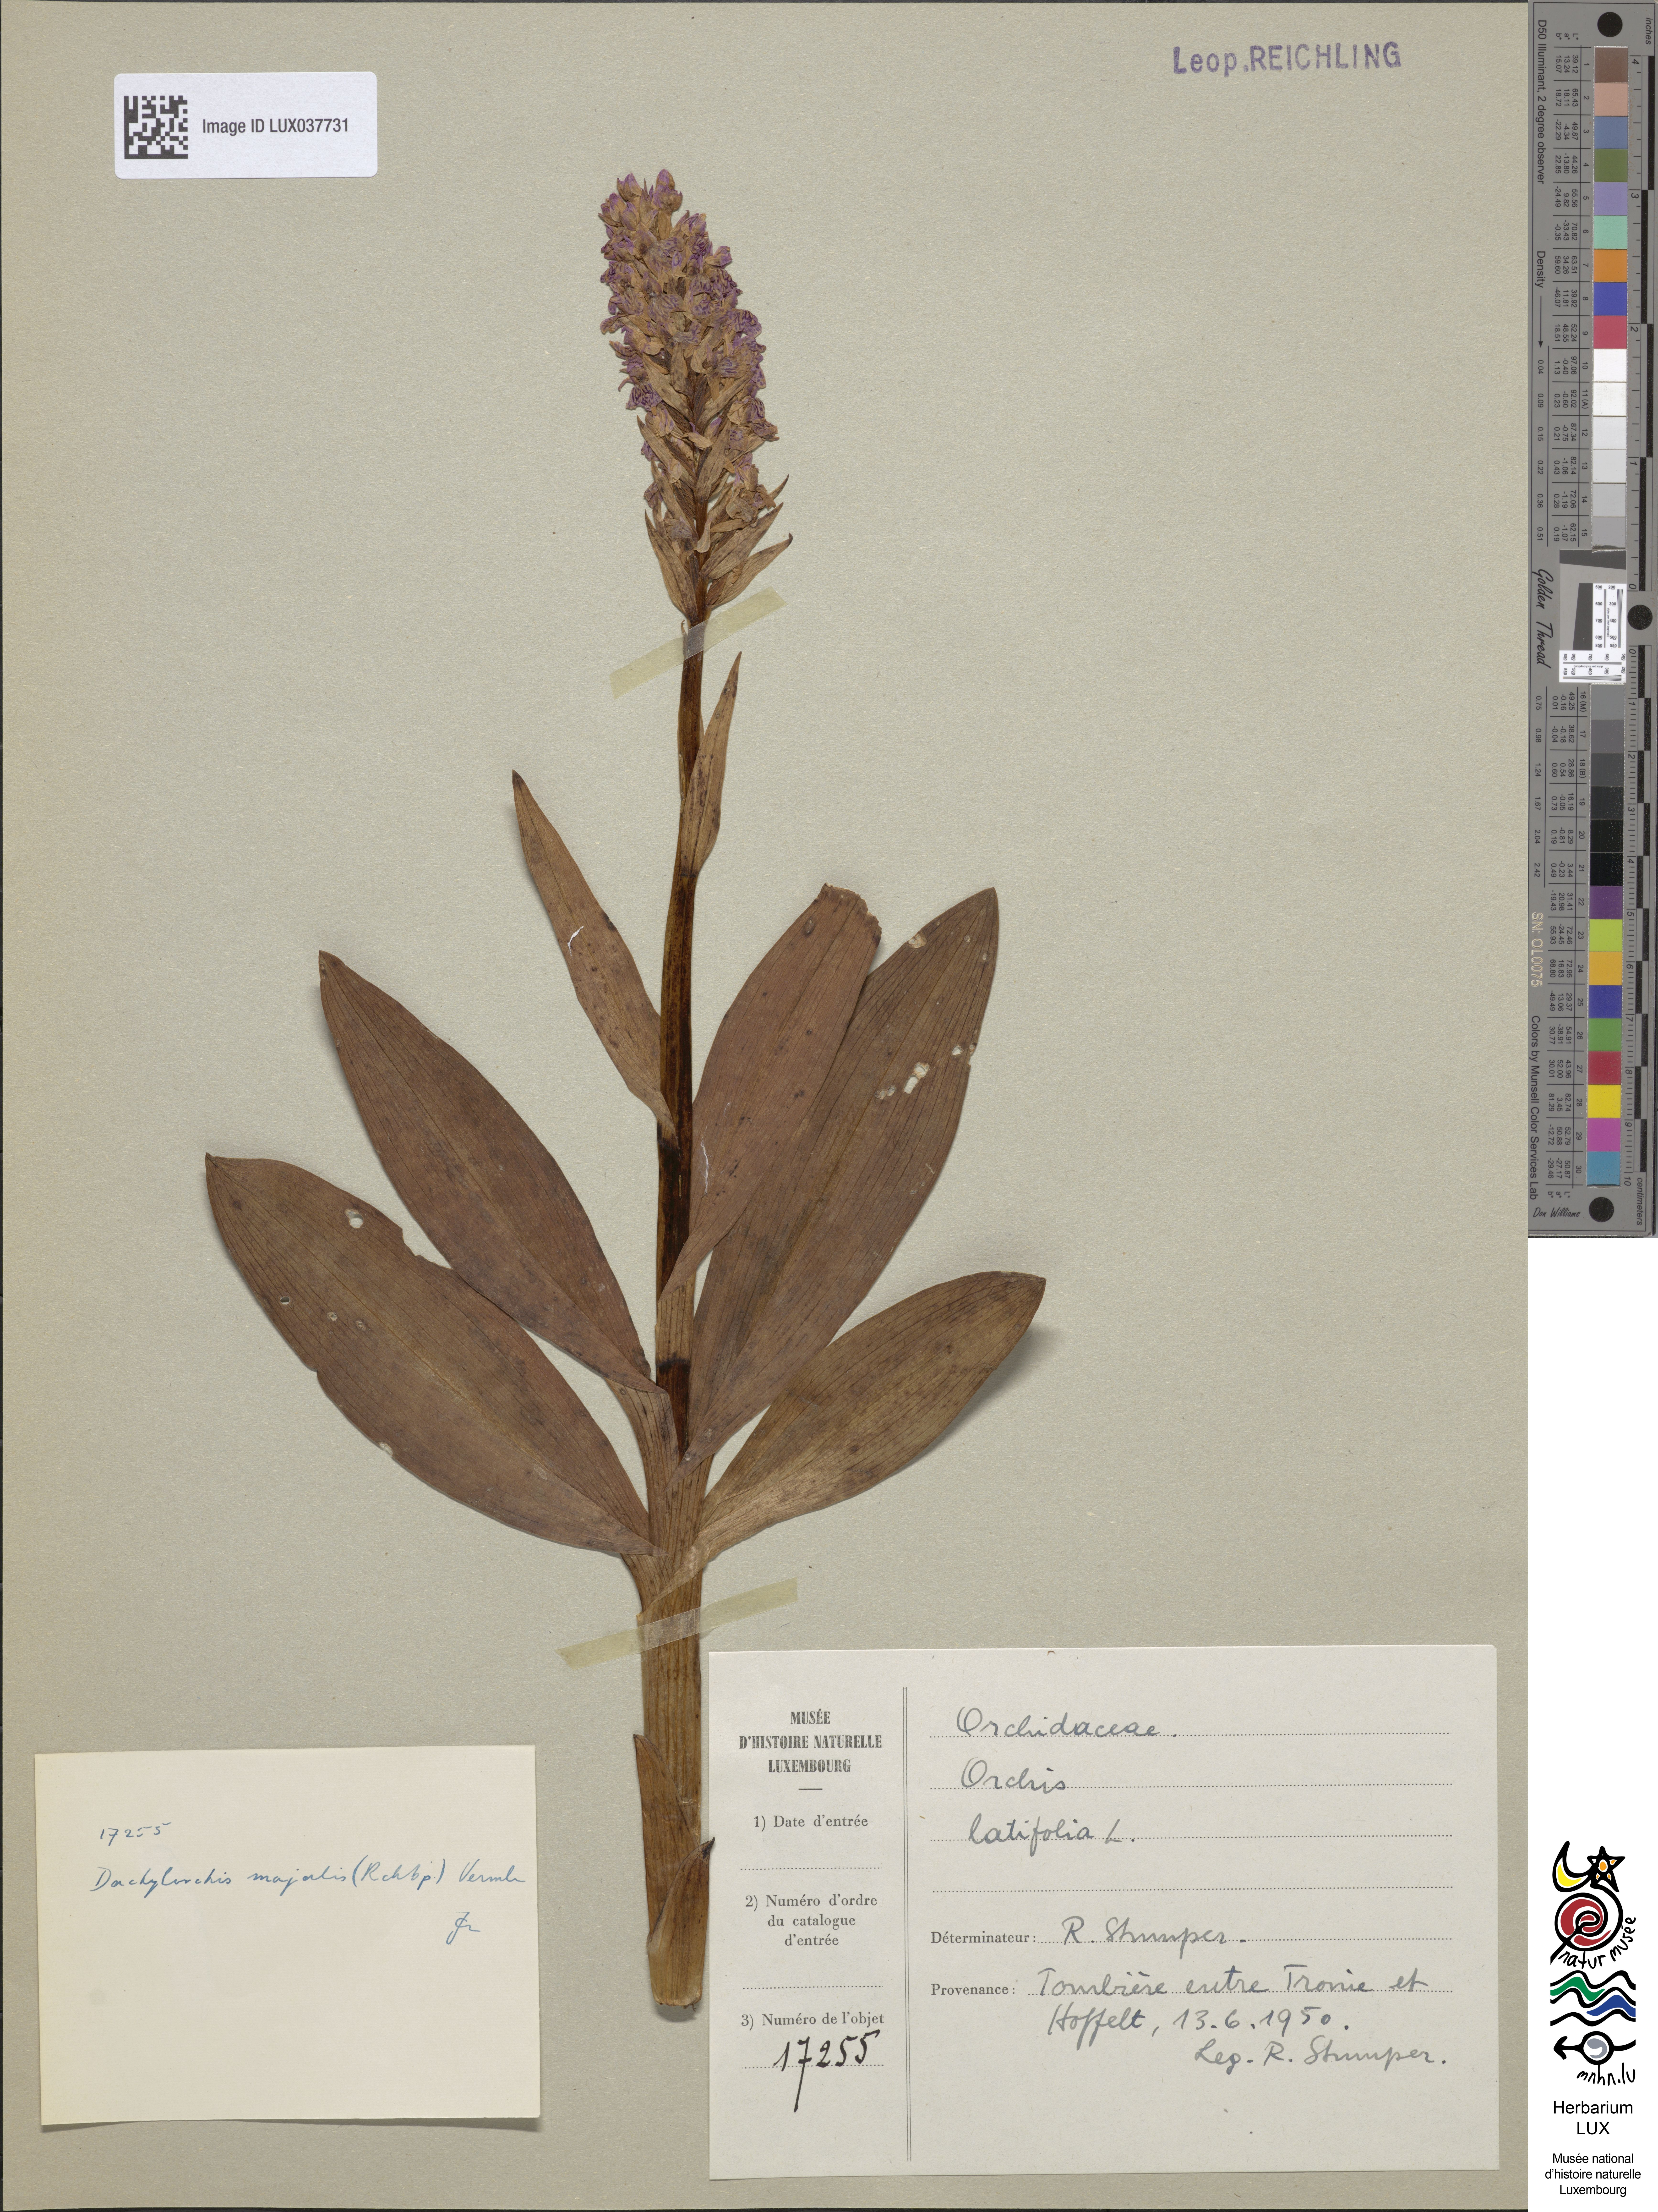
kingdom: Plantae
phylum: Tracheophyta
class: Liliopsida
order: Asparagales
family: Orchidaceae
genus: Dactylorhiza
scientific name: Dactylorhiza incarnata
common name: Early marsh-orchid
